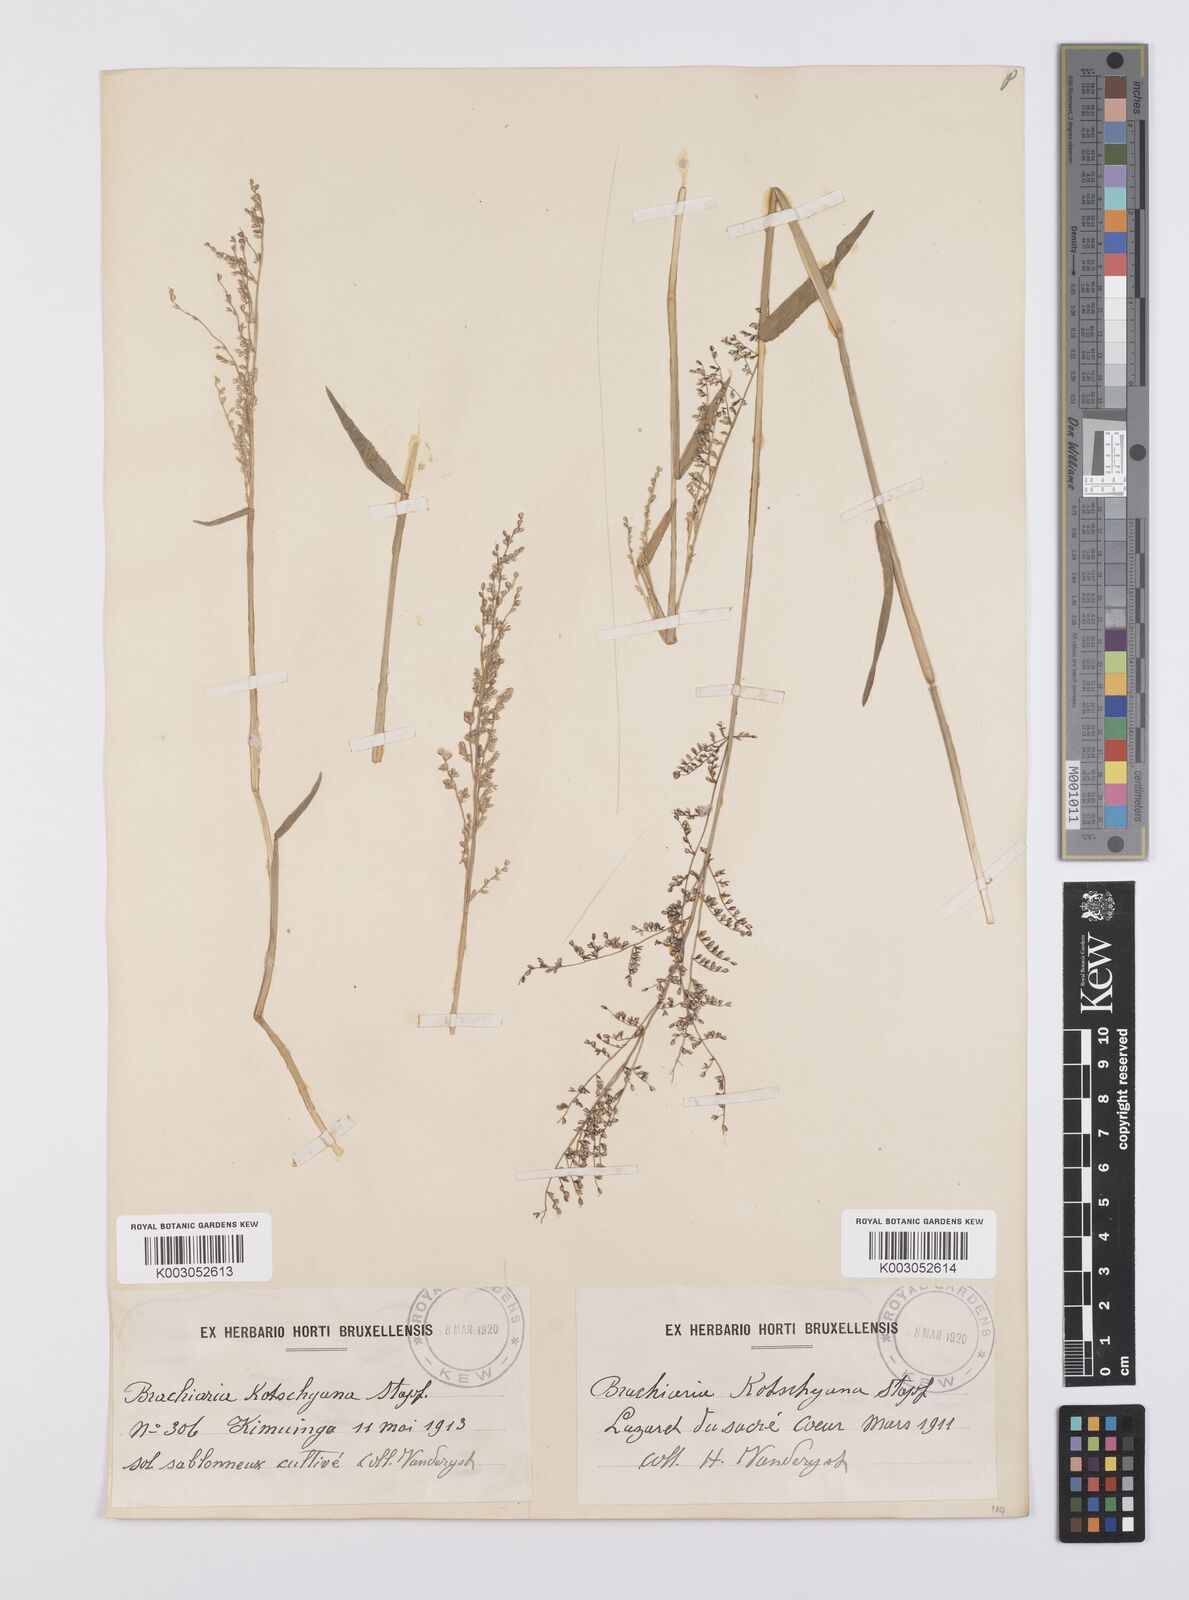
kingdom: Plantae
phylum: Tracheophyta
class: Liliopsida
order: Poales
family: Poaceae
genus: Urochloa
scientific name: Urochloa comata
